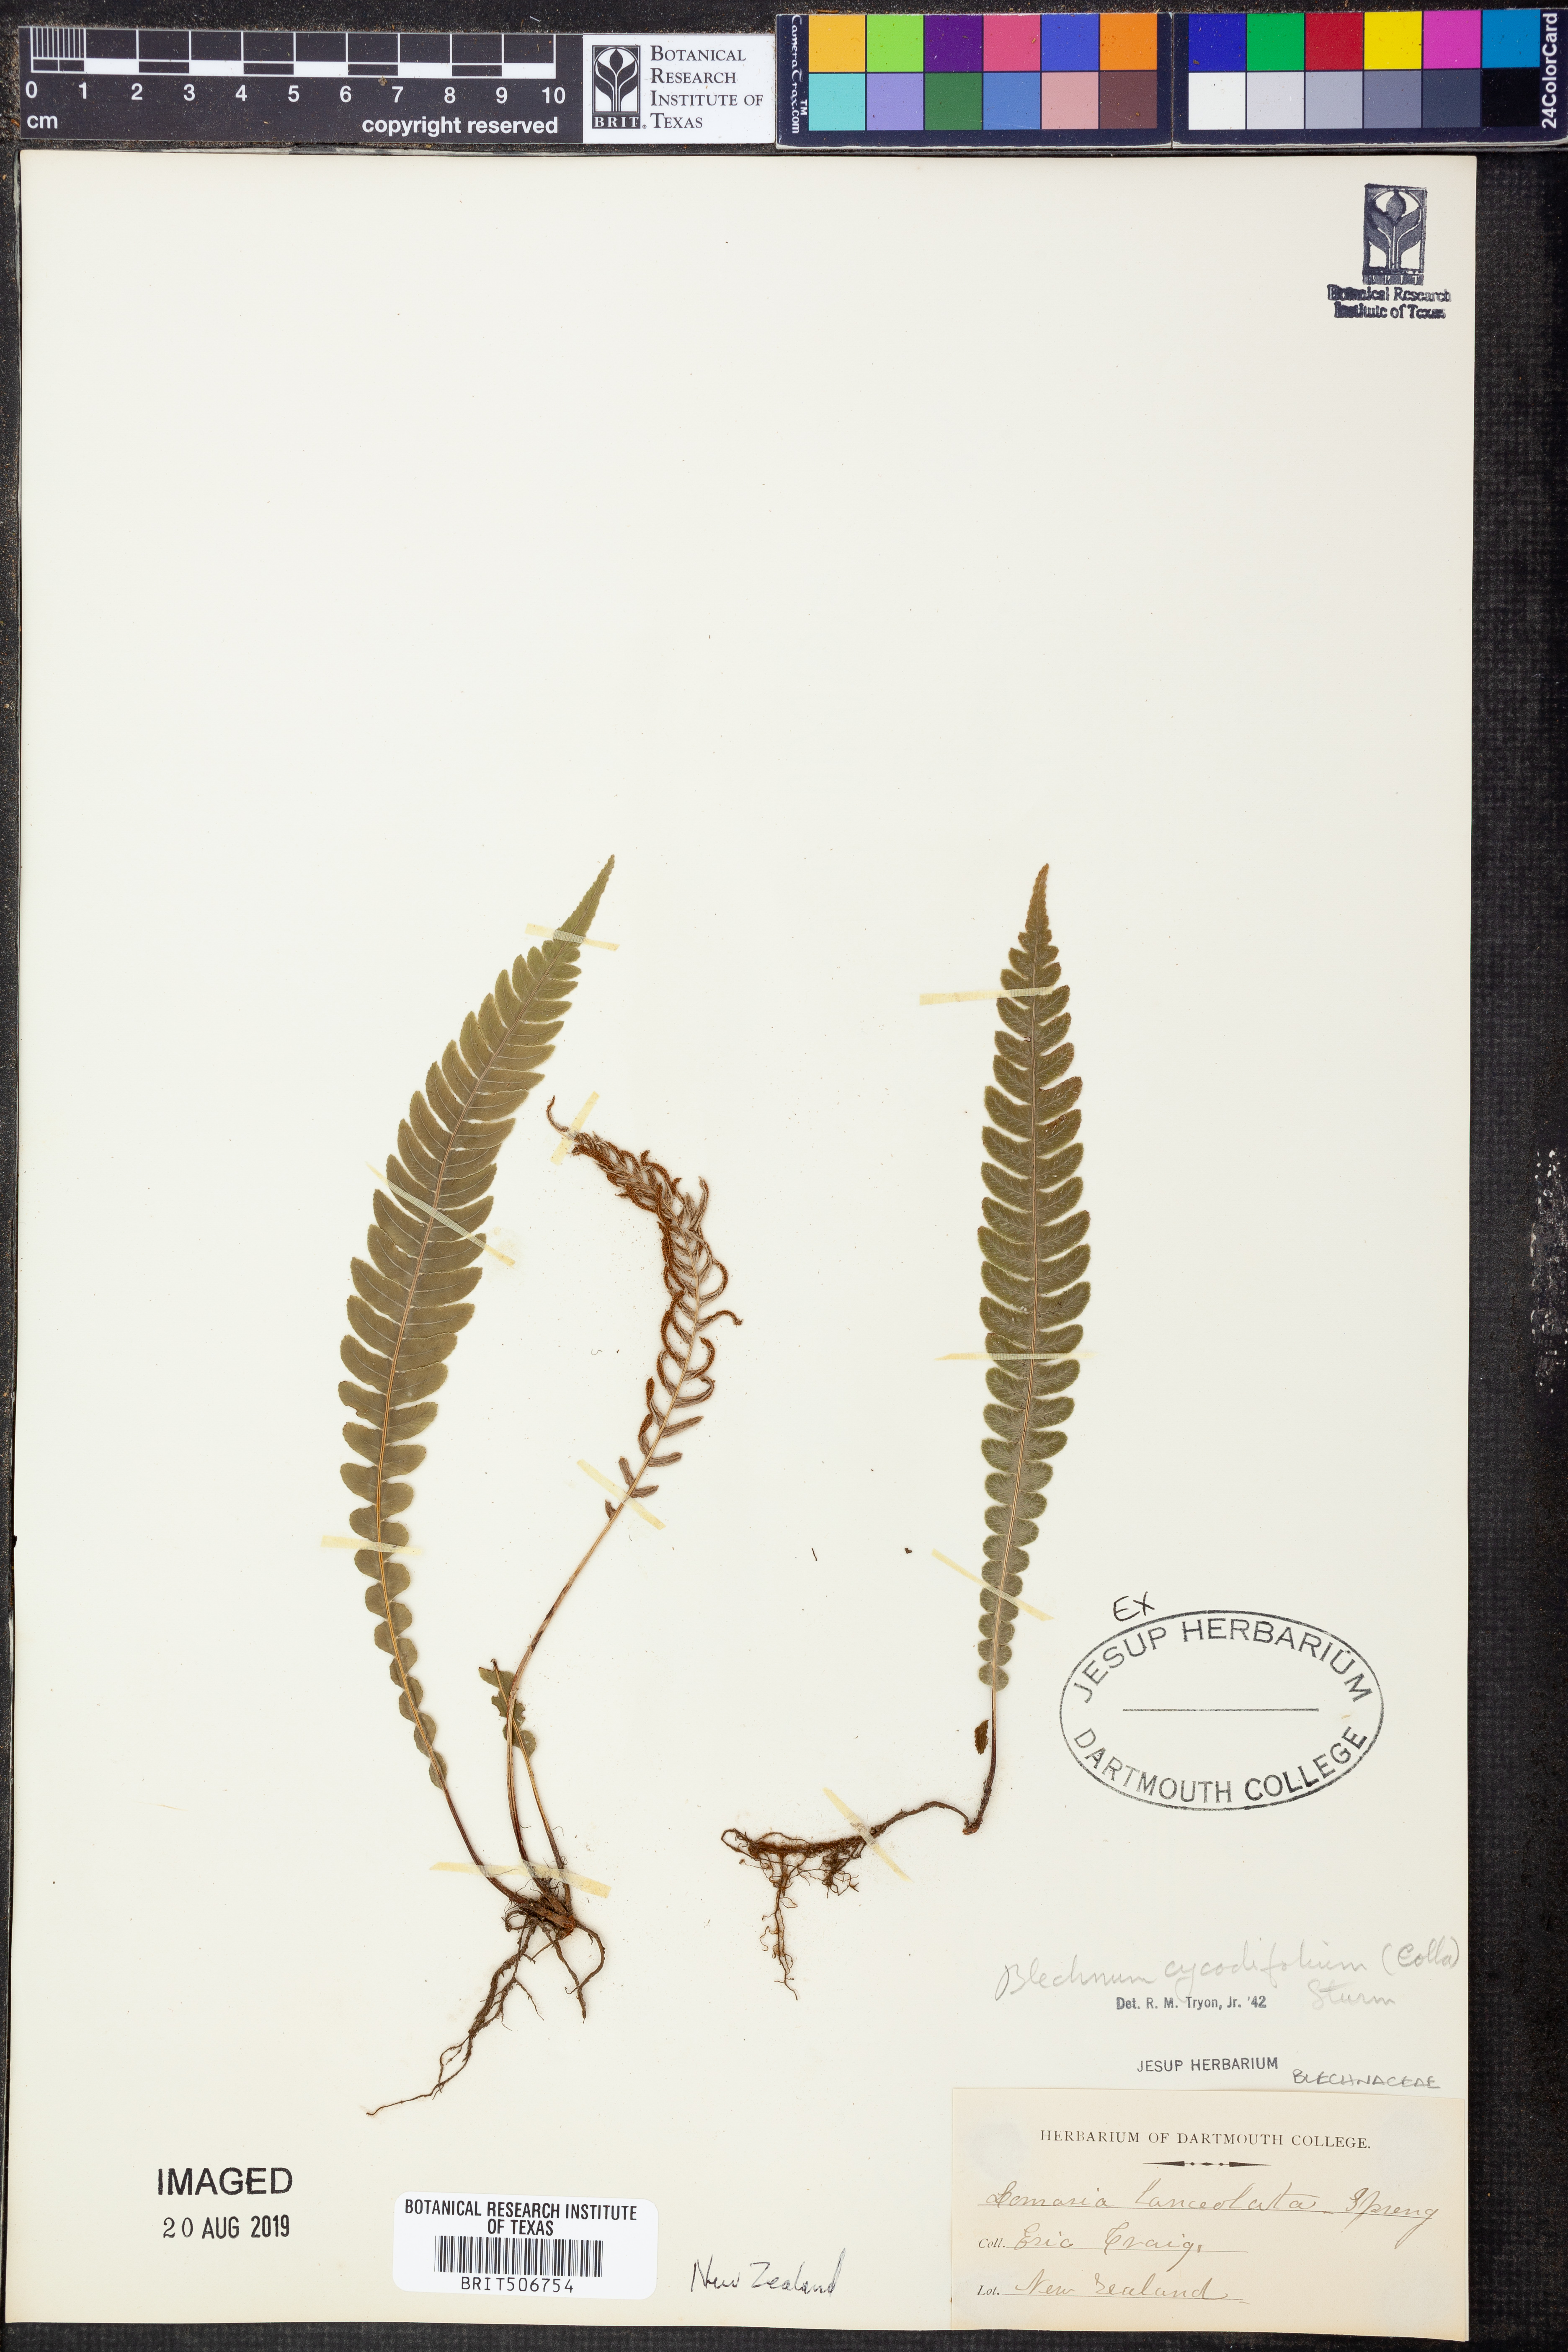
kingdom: Plantae
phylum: Tracheophyta
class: Polypodiopsida
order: Polypodiales
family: Blechnaceae
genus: Lomariocycas
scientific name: Lomariocycas cycadifolia
